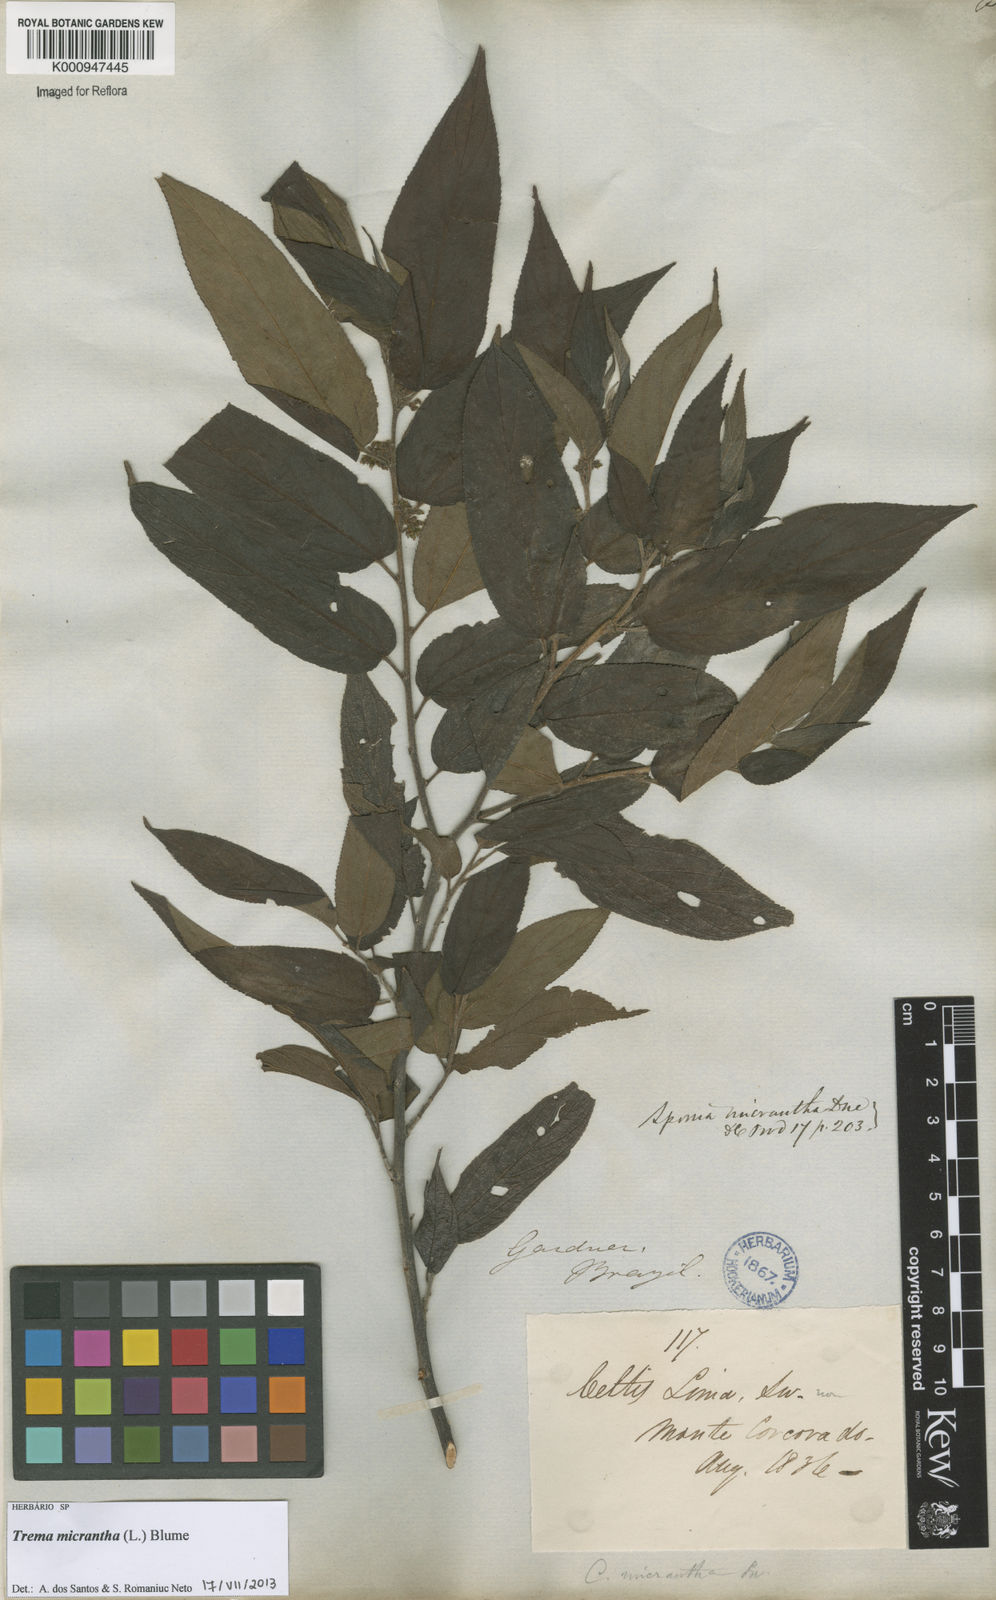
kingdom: Plantae
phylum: Tracheophyta
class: Magnoliopsida
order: Rosales
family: Cannabaceae
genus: Trema
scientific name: Trema micranthum
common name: Jamaican nettletree
